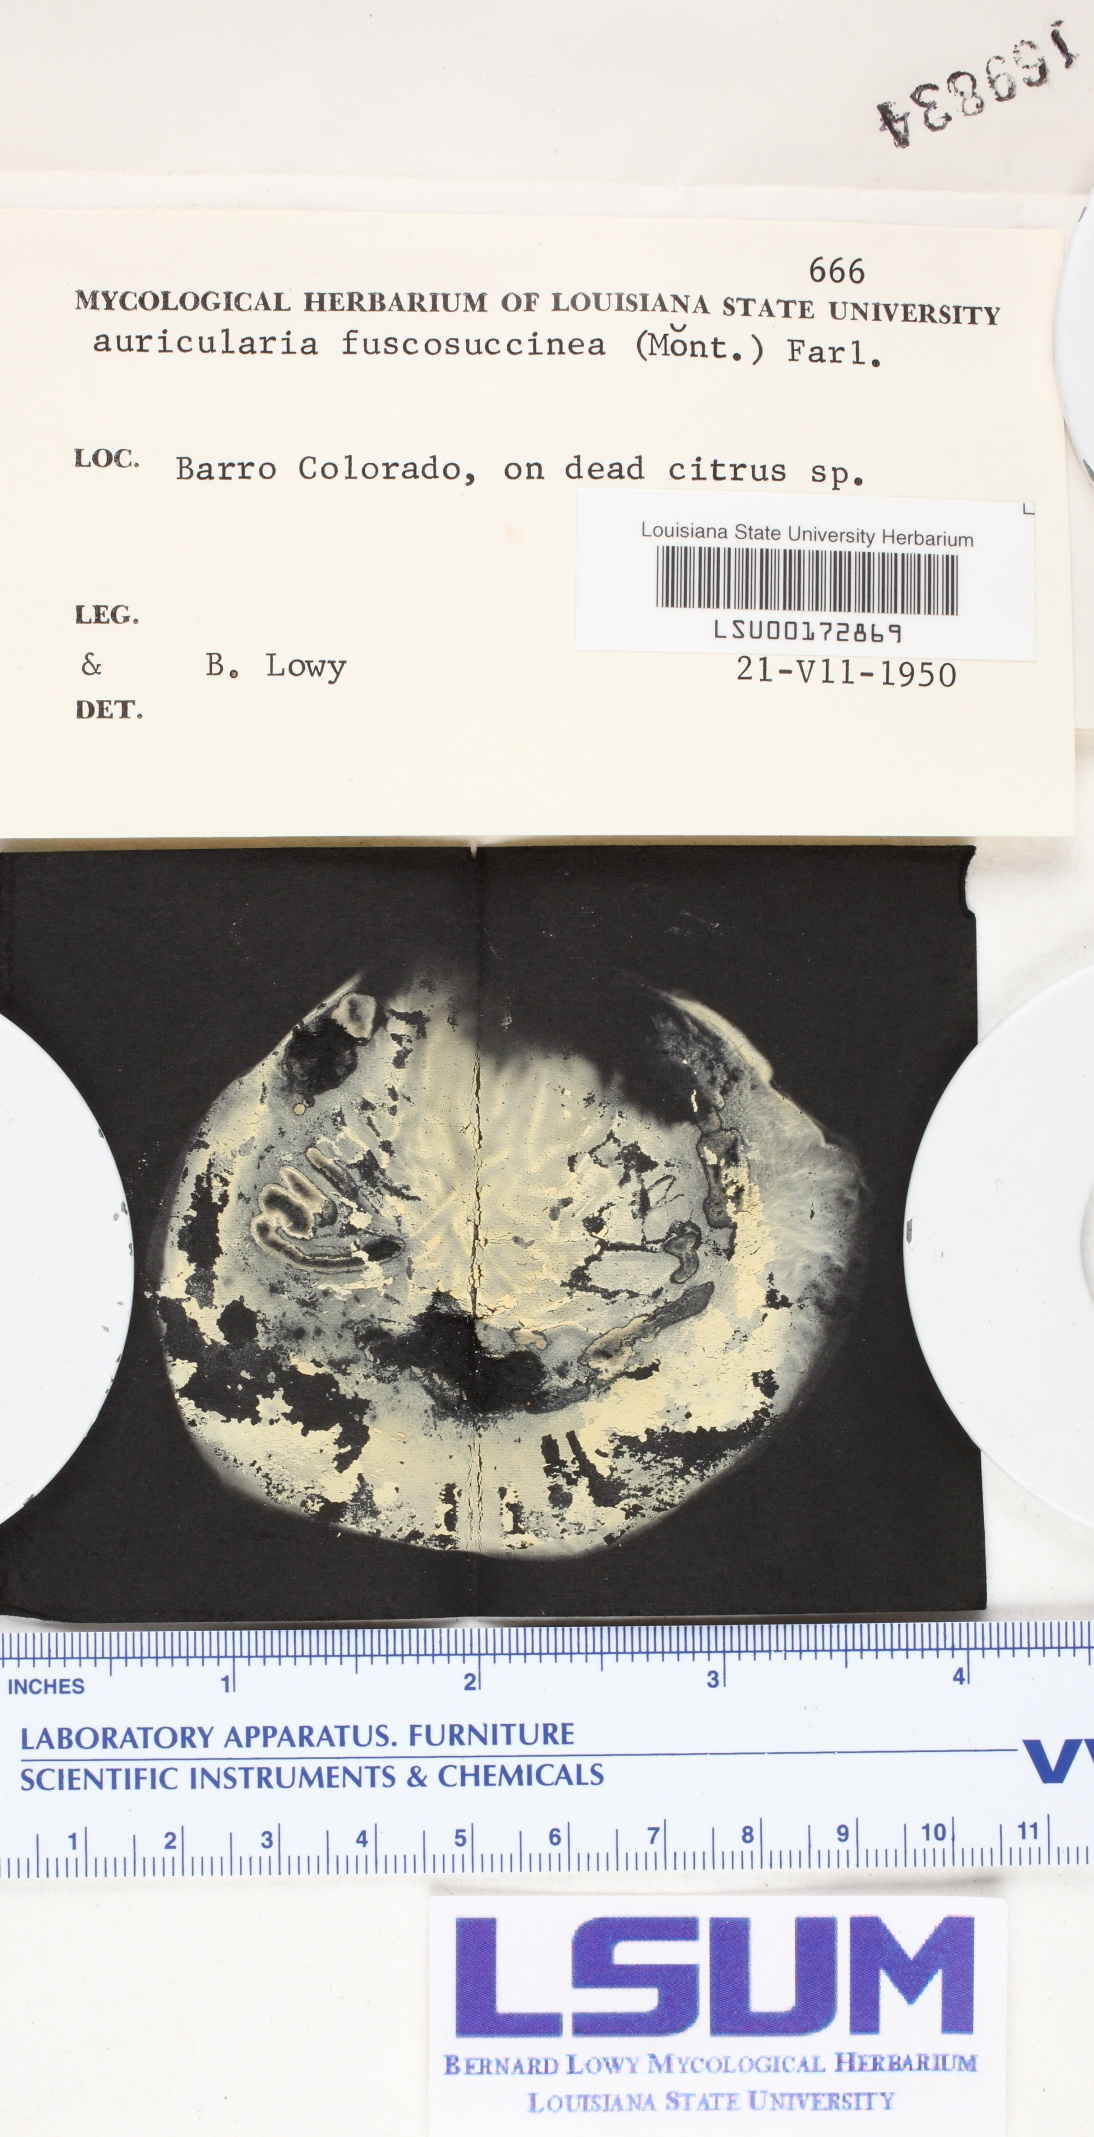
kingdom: Fungi
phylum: Basidiomycota
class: Agaricomycetes
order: Auriculariales
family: Auriculariaceae
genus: Auricularia
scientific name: Auricularia fuscosuccinea
